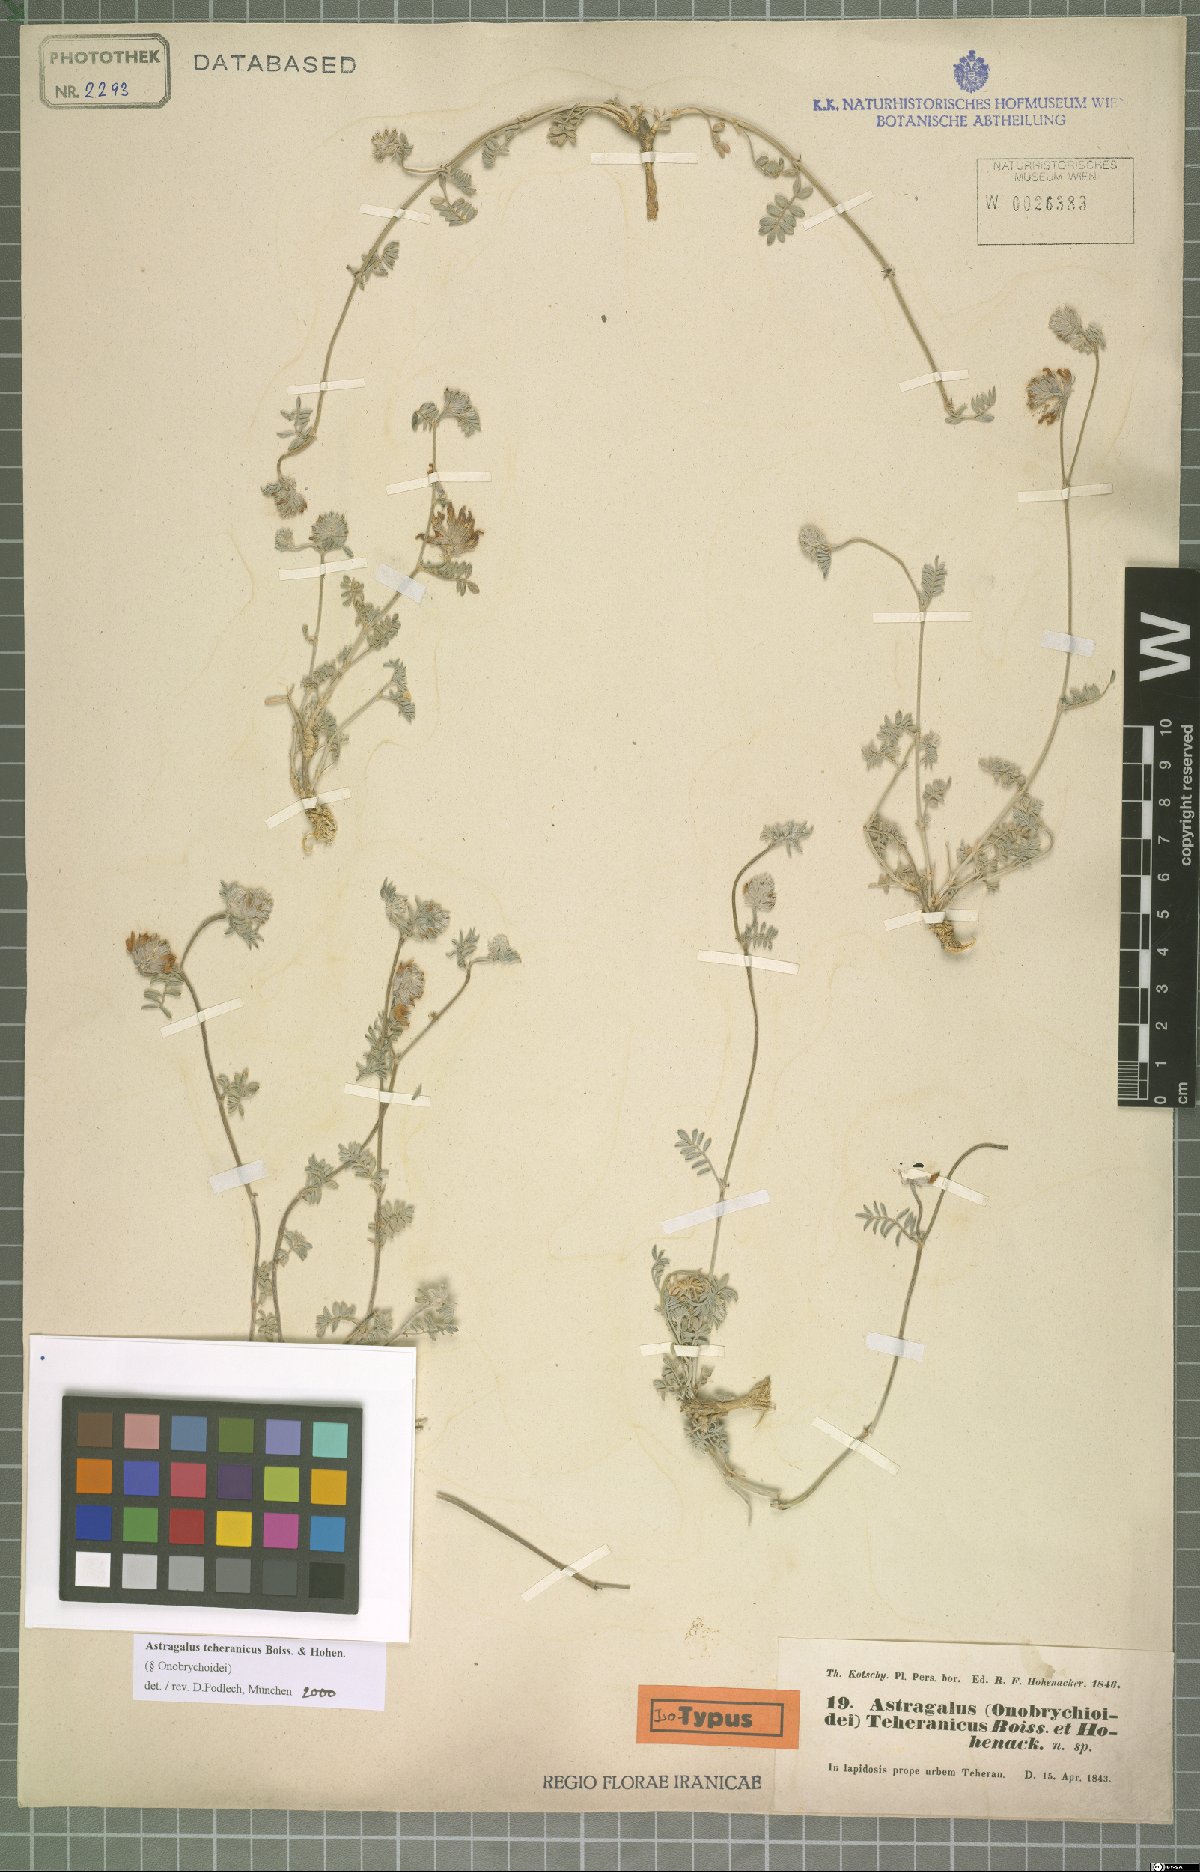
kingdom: Plantae
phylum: Tracheophyta
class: Magnoliopsida
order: Fabales
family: Fabaceae
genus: Astragalus
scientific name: Astragalus teheranicus
